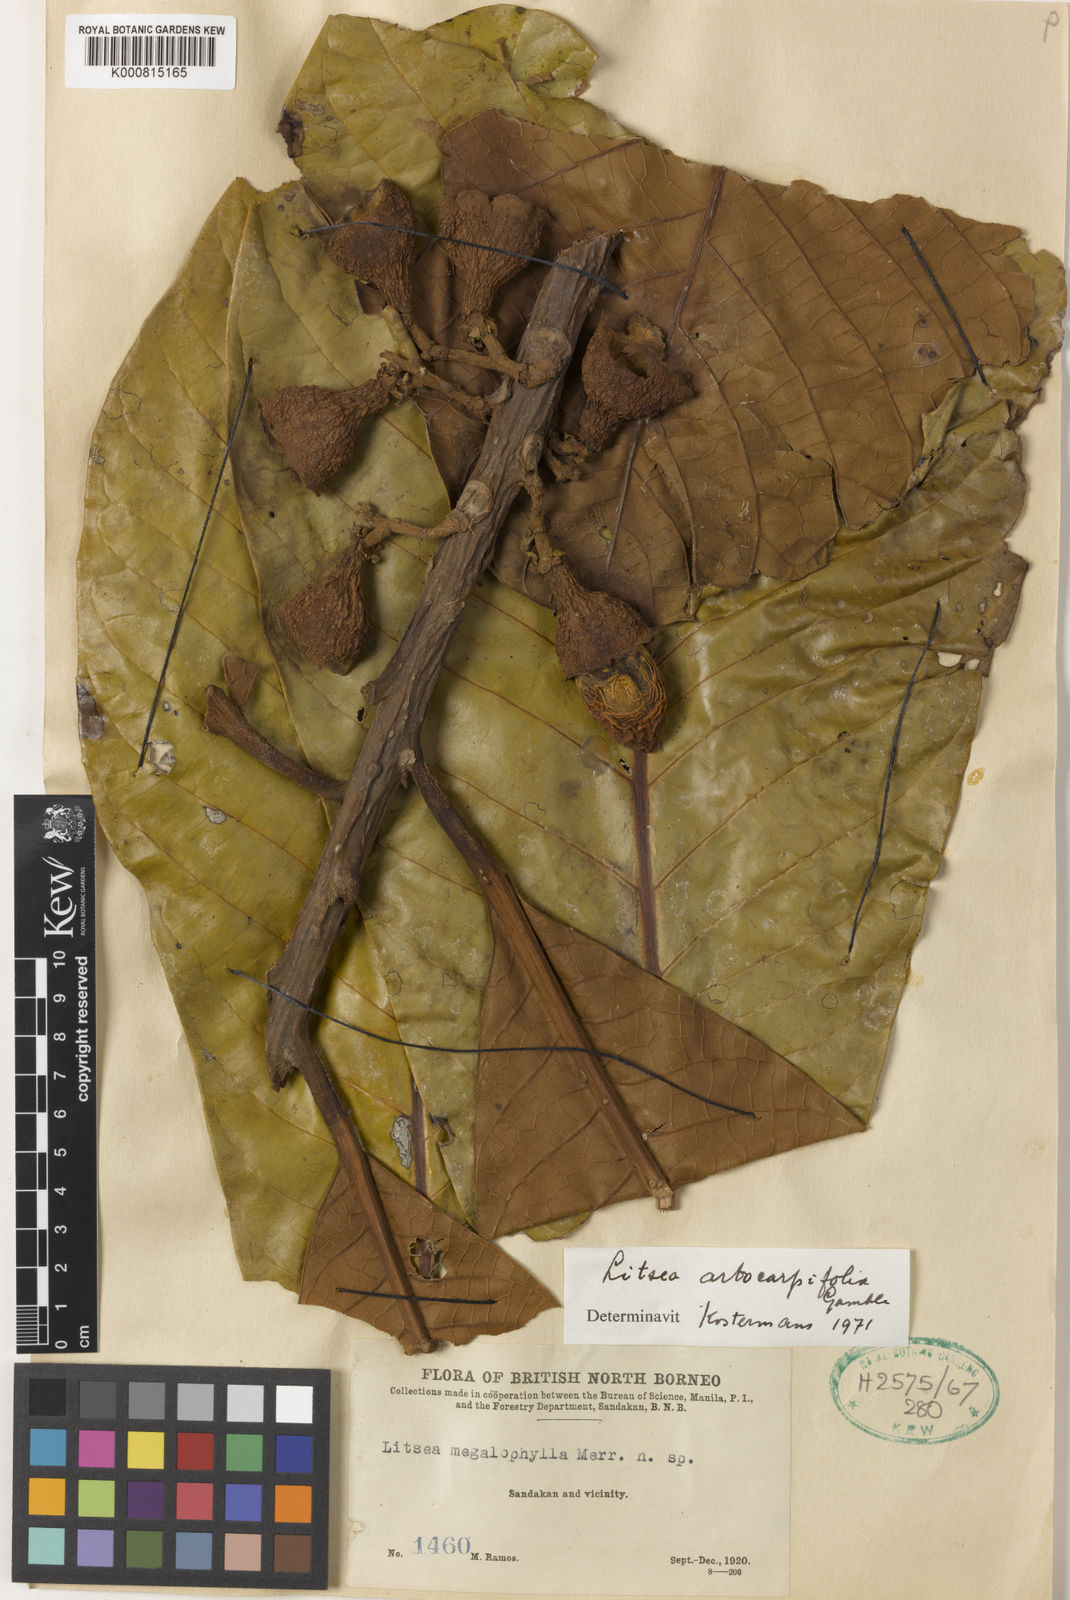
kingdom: Plantae
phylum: Tracheophyta
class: Magnoliopsida
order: Laurales
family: Lauraceae
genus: Litsea
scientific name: Litsea artocarpifolia
